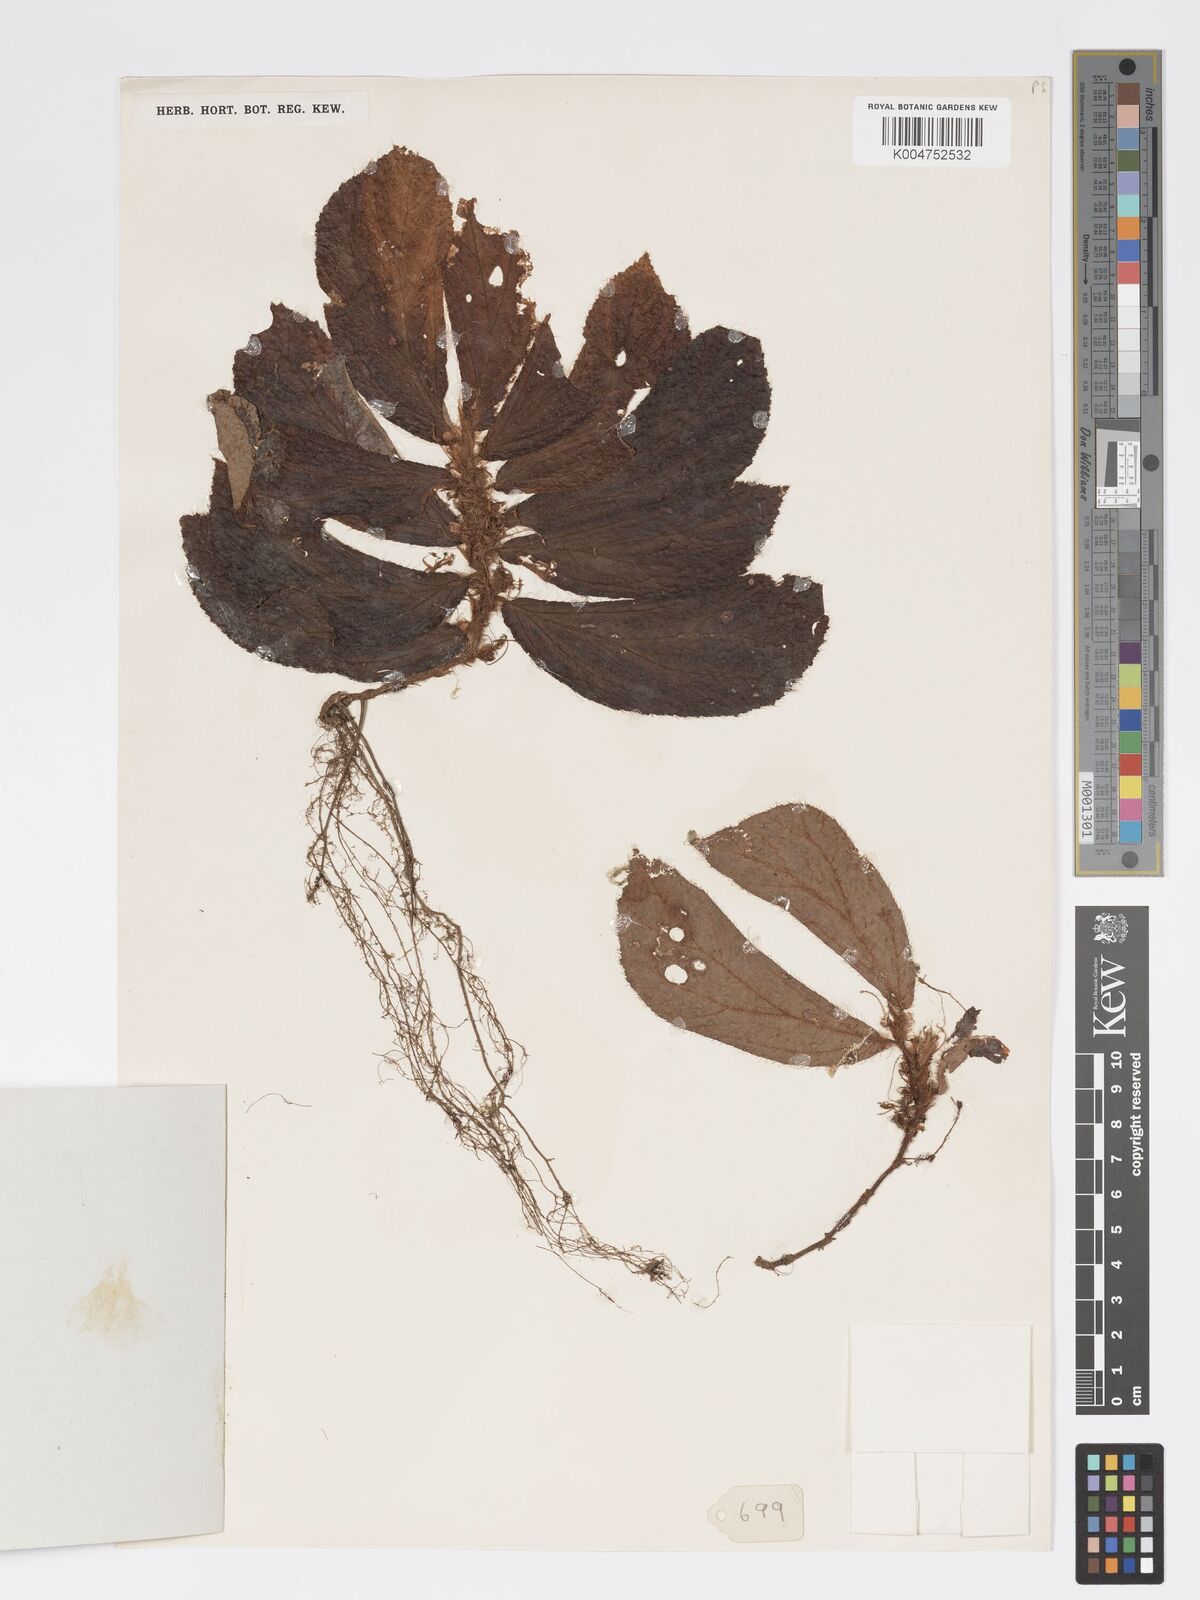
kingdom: Plantae
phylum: Tracheophyta
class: Magnoliopsida
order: Cucurbitales
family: Begoniaceae
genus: Begonia
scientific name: Begonia pubescens
